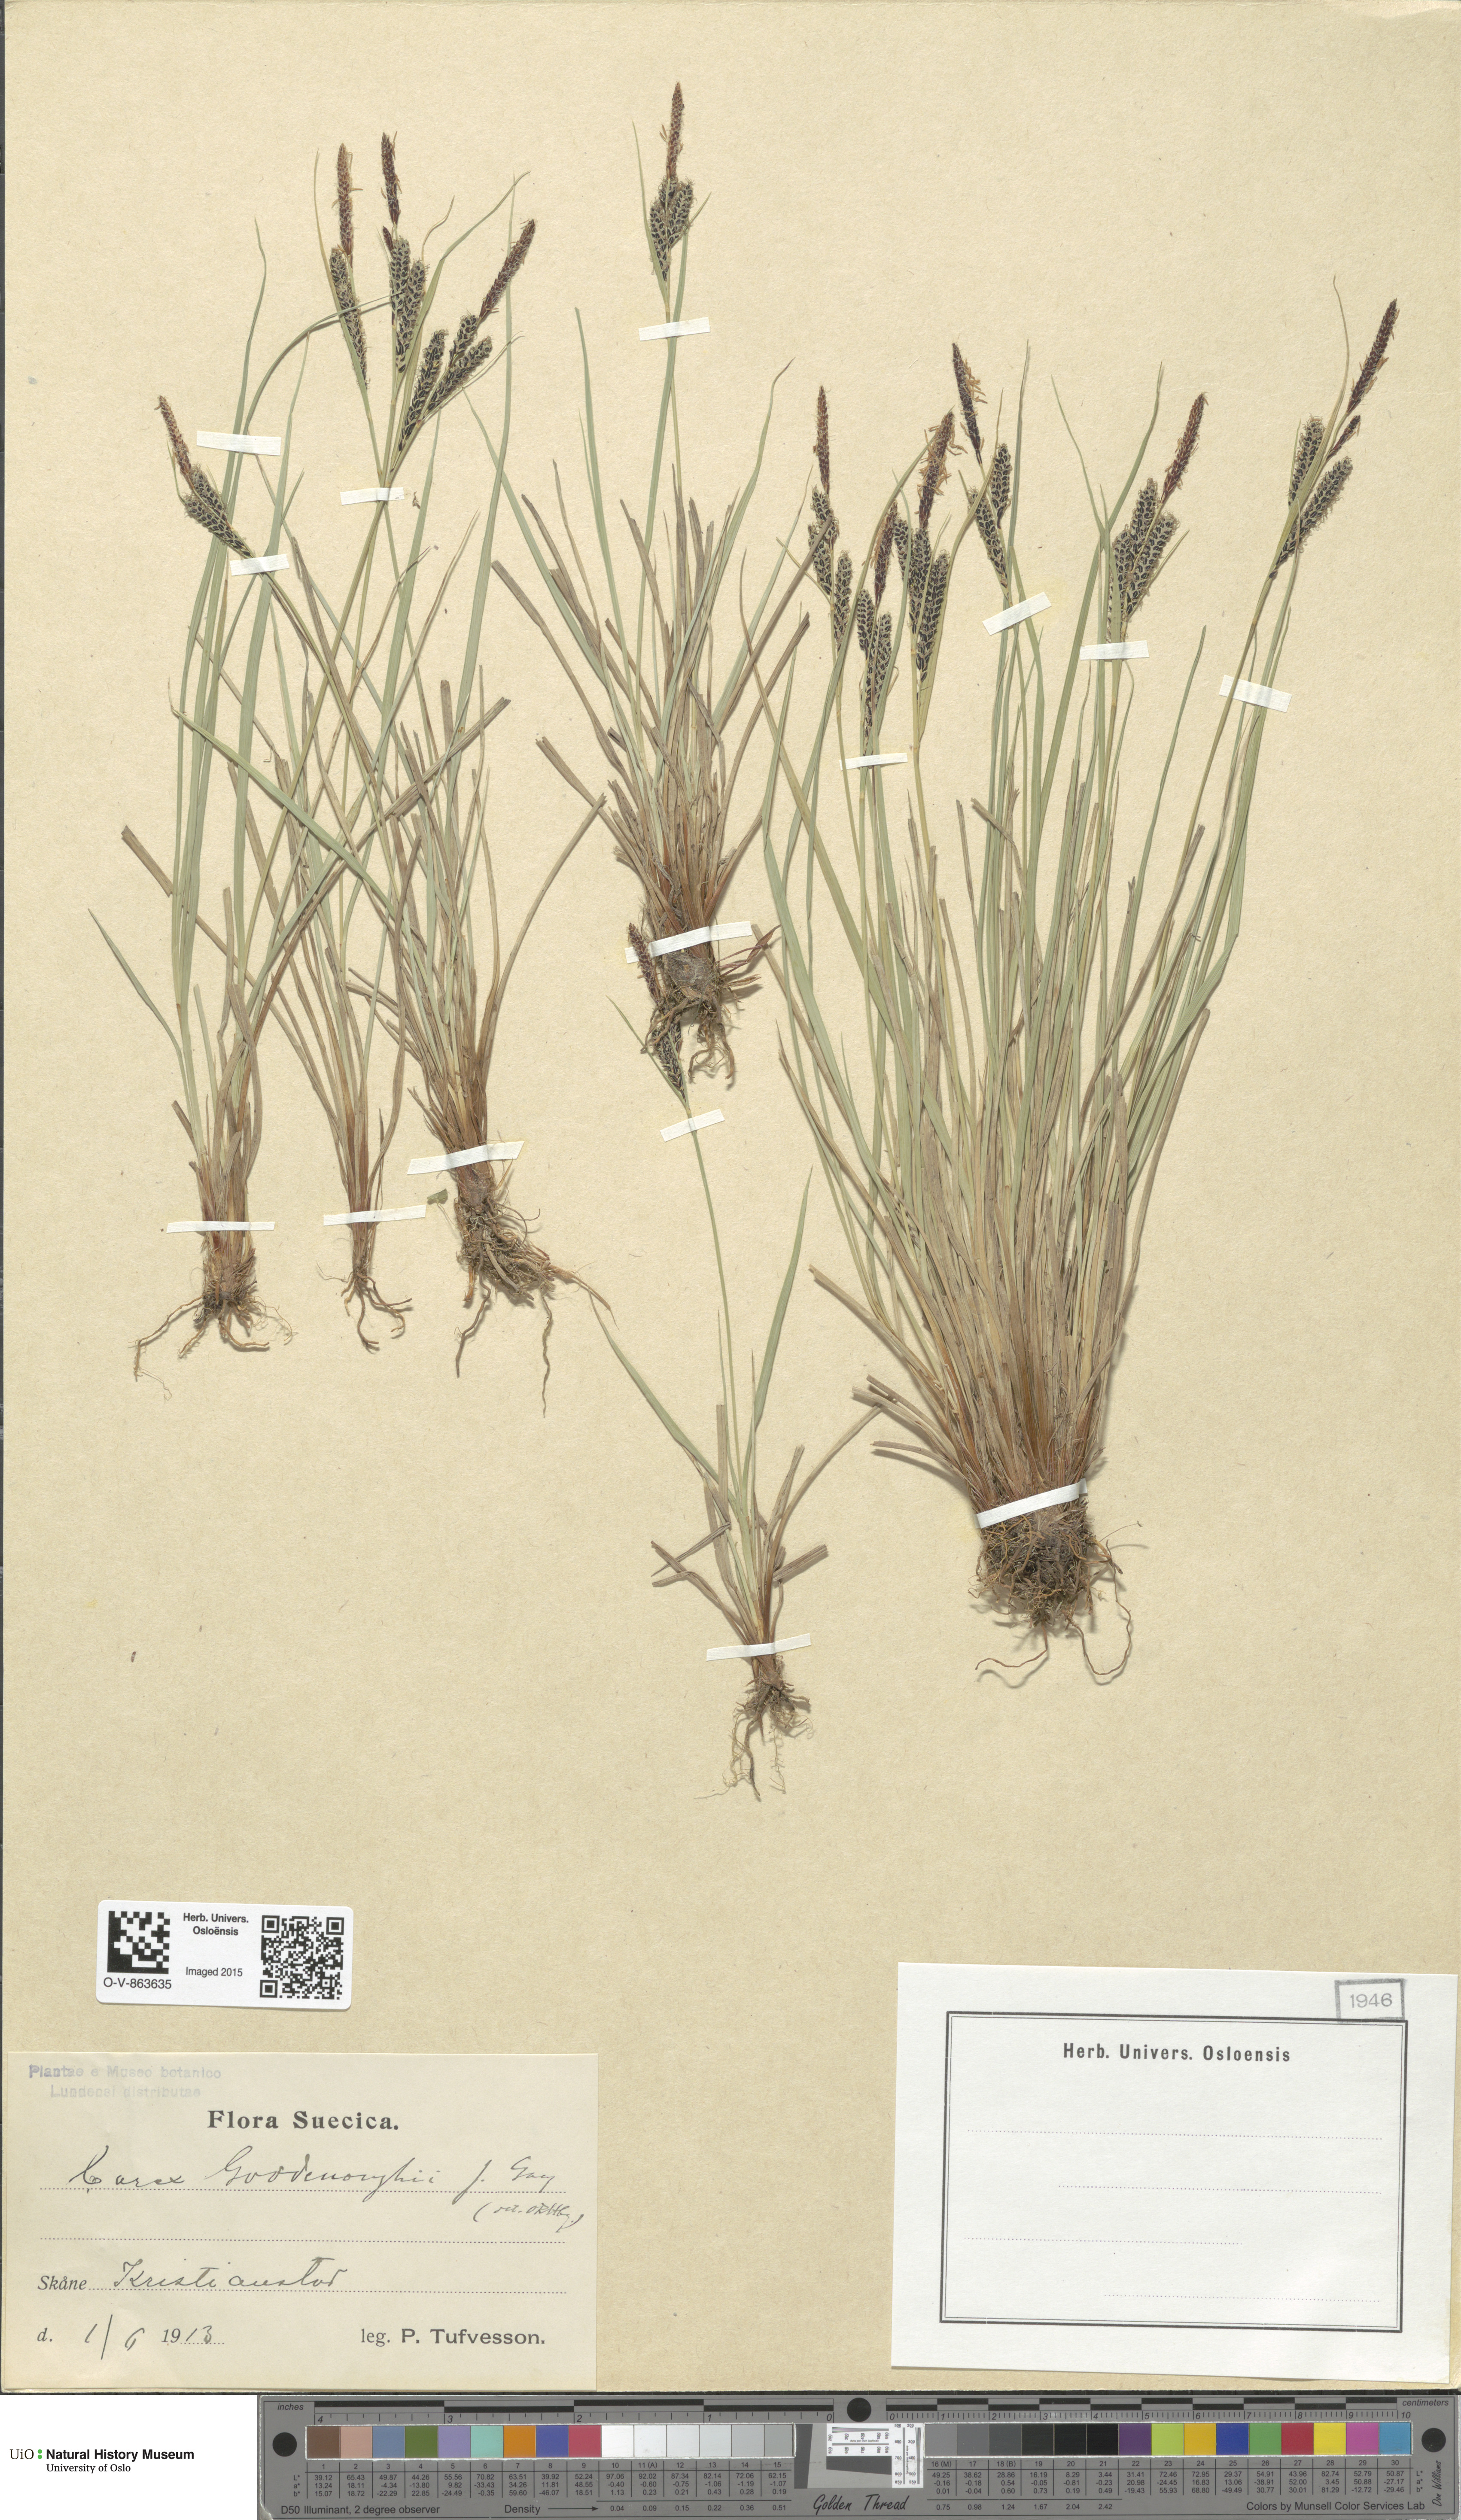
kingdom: Plantae
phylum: Tracheophyta
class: Liliopsida
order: Poales
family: Cyperaceae
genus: Carex
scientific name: Carex nigra
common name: Common sedge
